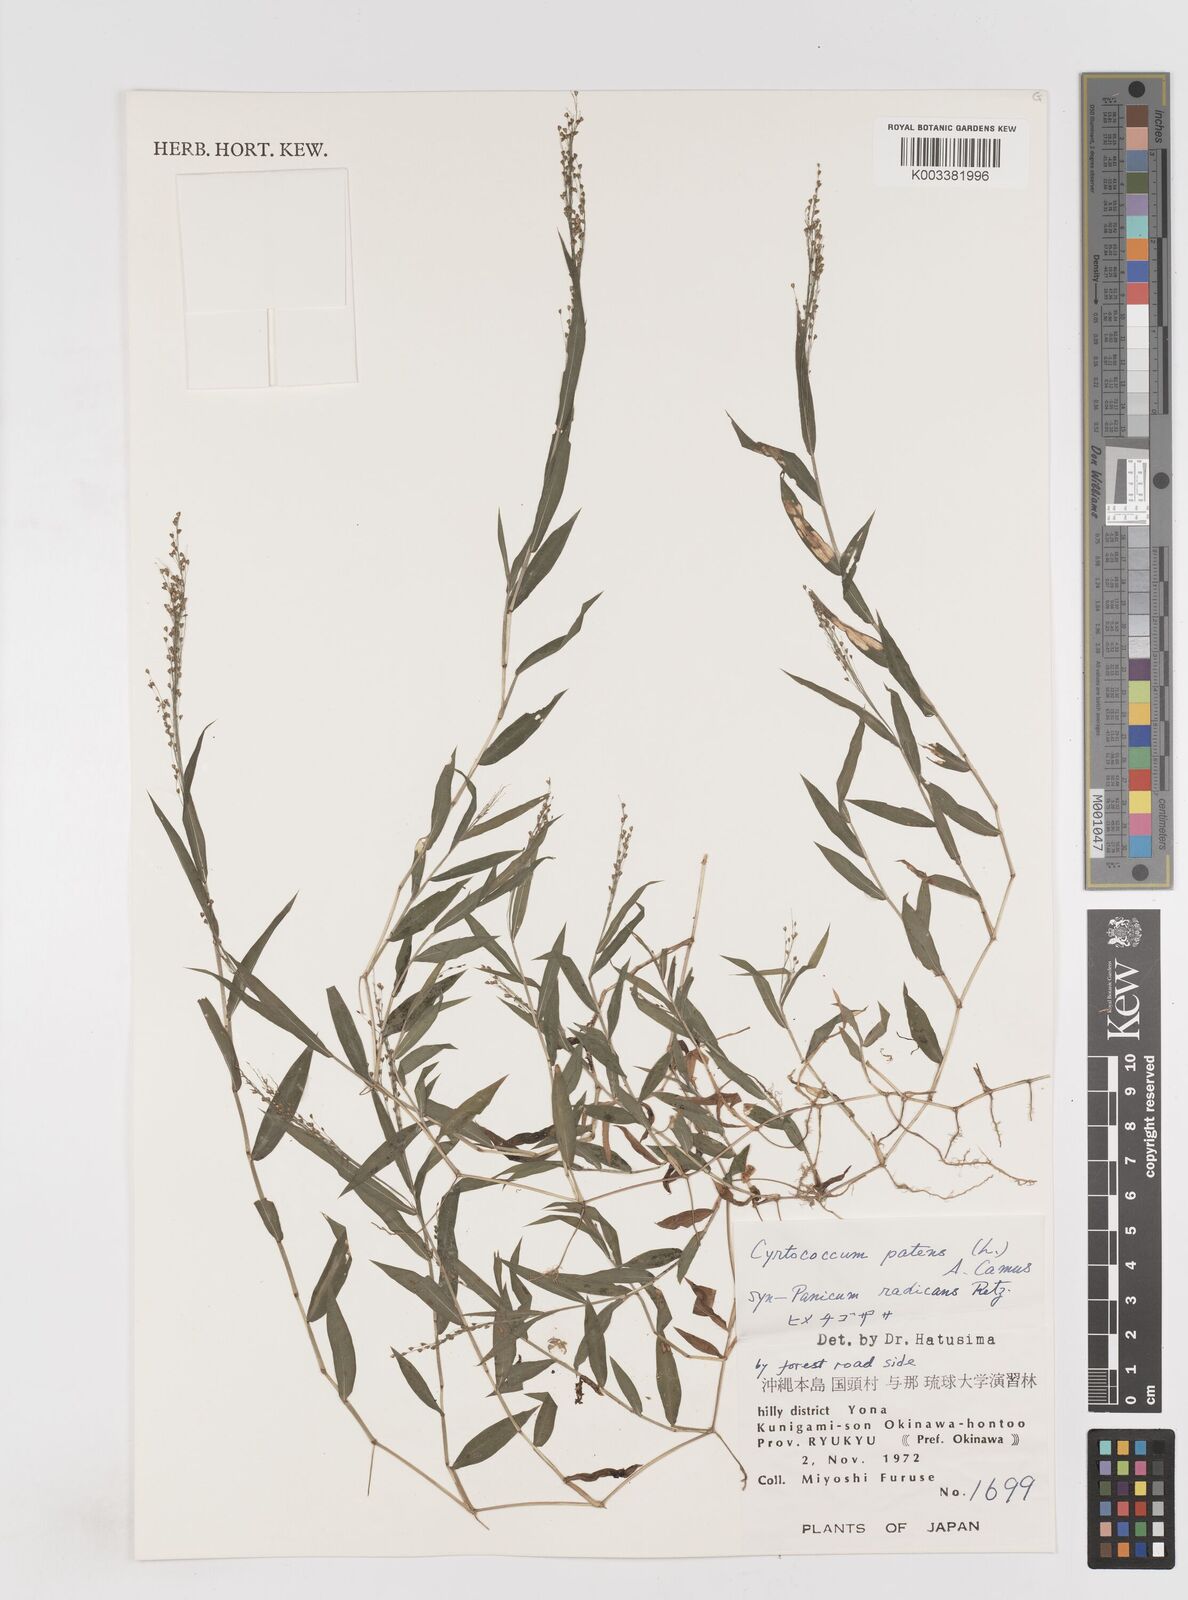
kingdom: Plantae
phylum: Tracheophyta
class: Liliopsida
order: Poales
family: Poaceae
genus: Cyrtococcum
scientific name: Cyrtococcum patens
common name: Broad-leaved bowgrass
